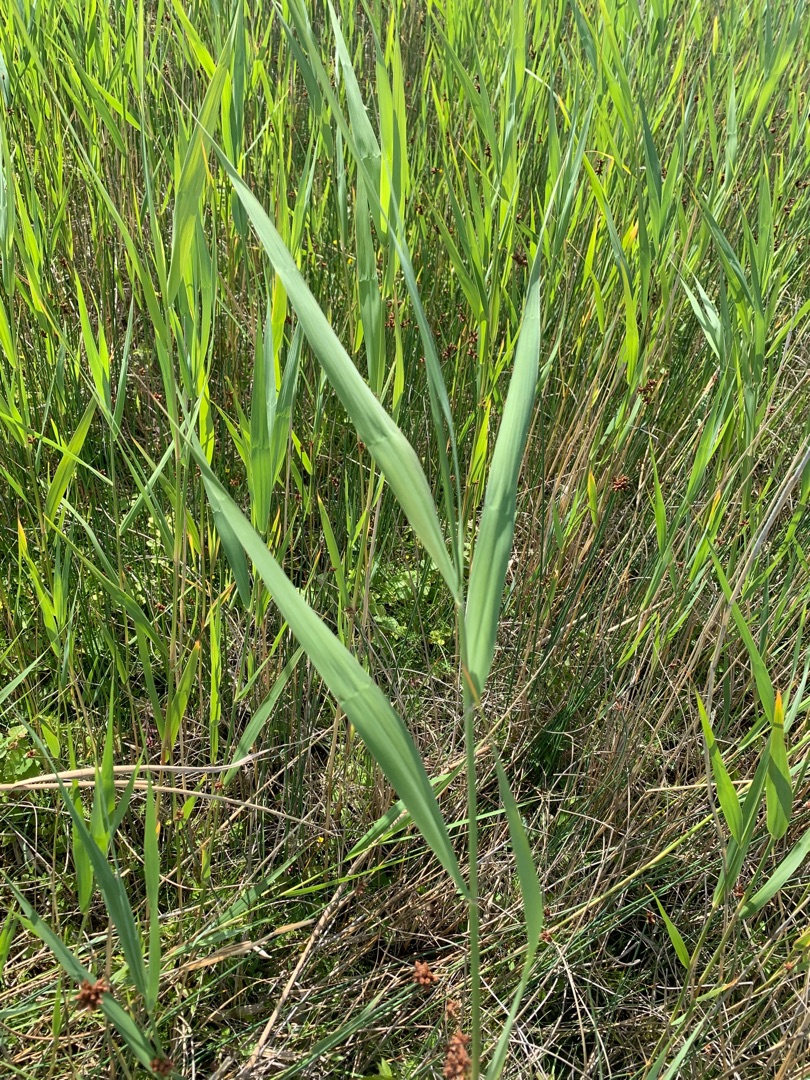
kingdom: Plantae
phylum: Tracheophyta
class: Liliopsida
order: Poales
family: Poaceae
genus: Phragmites
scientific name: Phragmites australis
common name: Tagrør
